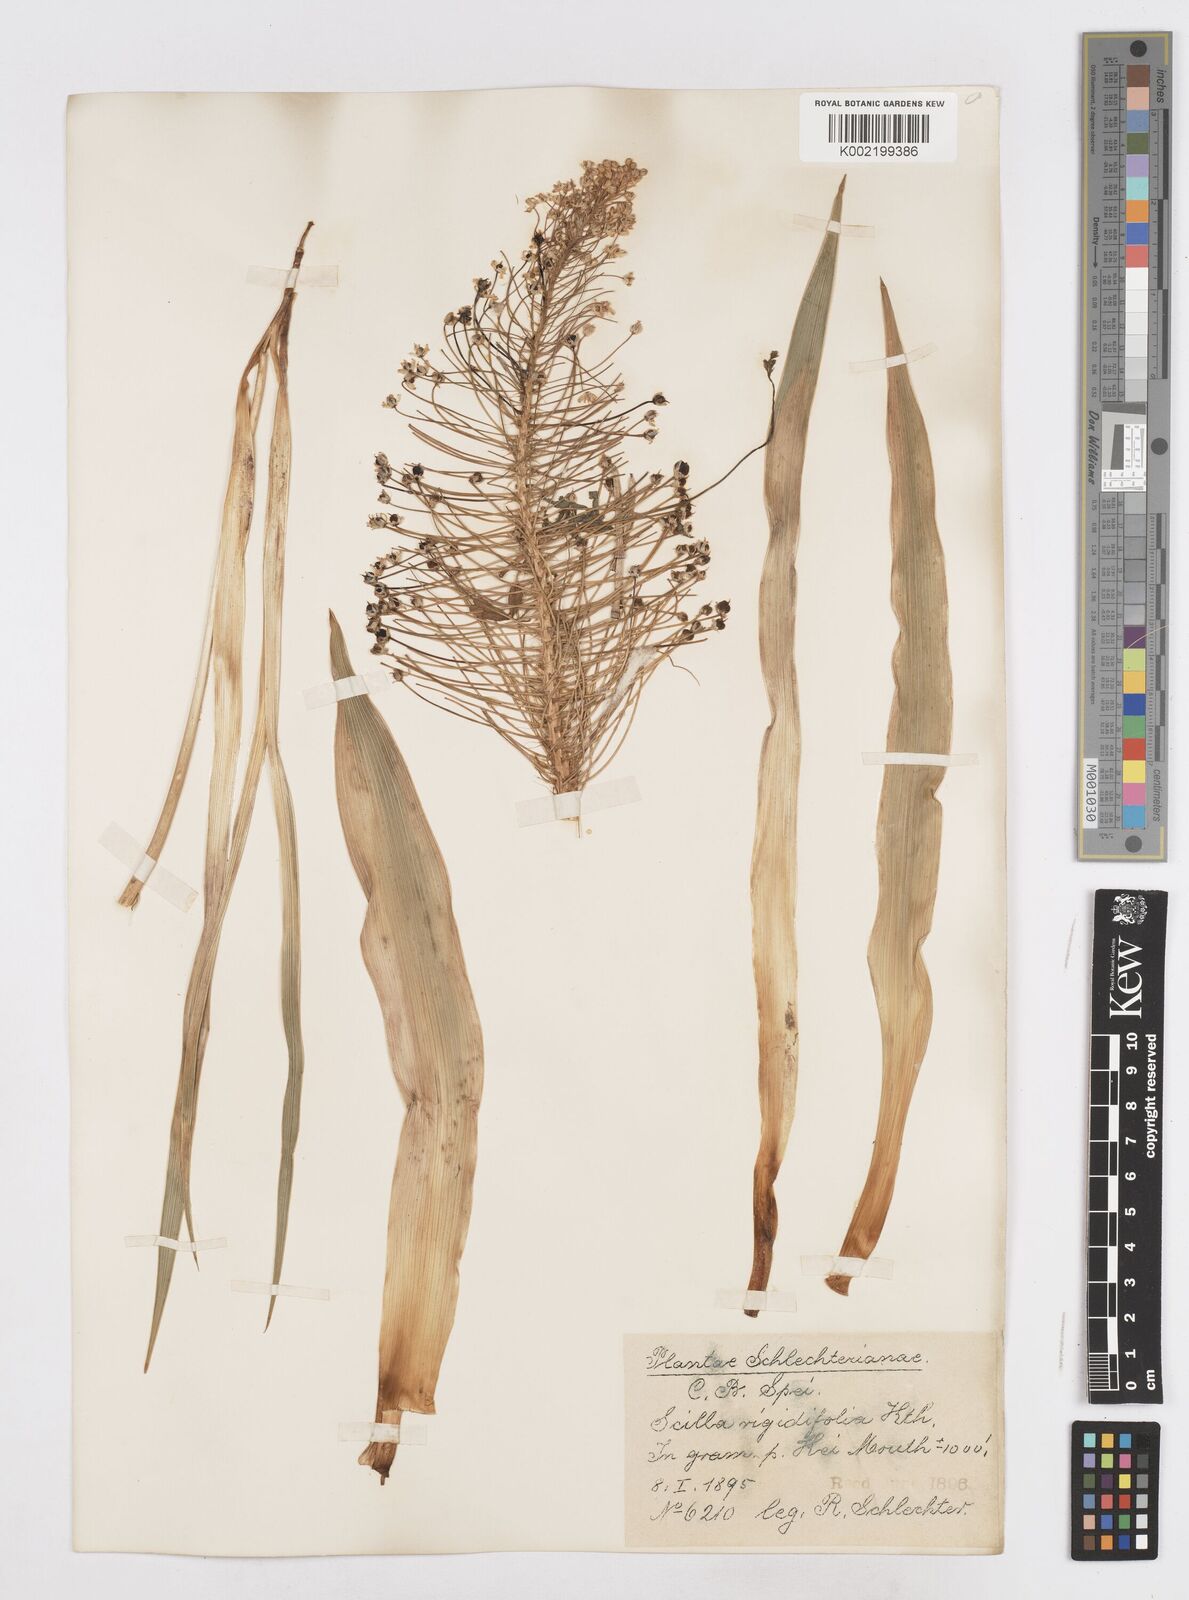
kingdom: Plantae
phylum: Tracheophyta
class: Liliopsida
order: Asparagales
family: Asparagaceae
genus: Schizocarphus
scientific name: Schizocarphus nervosus
